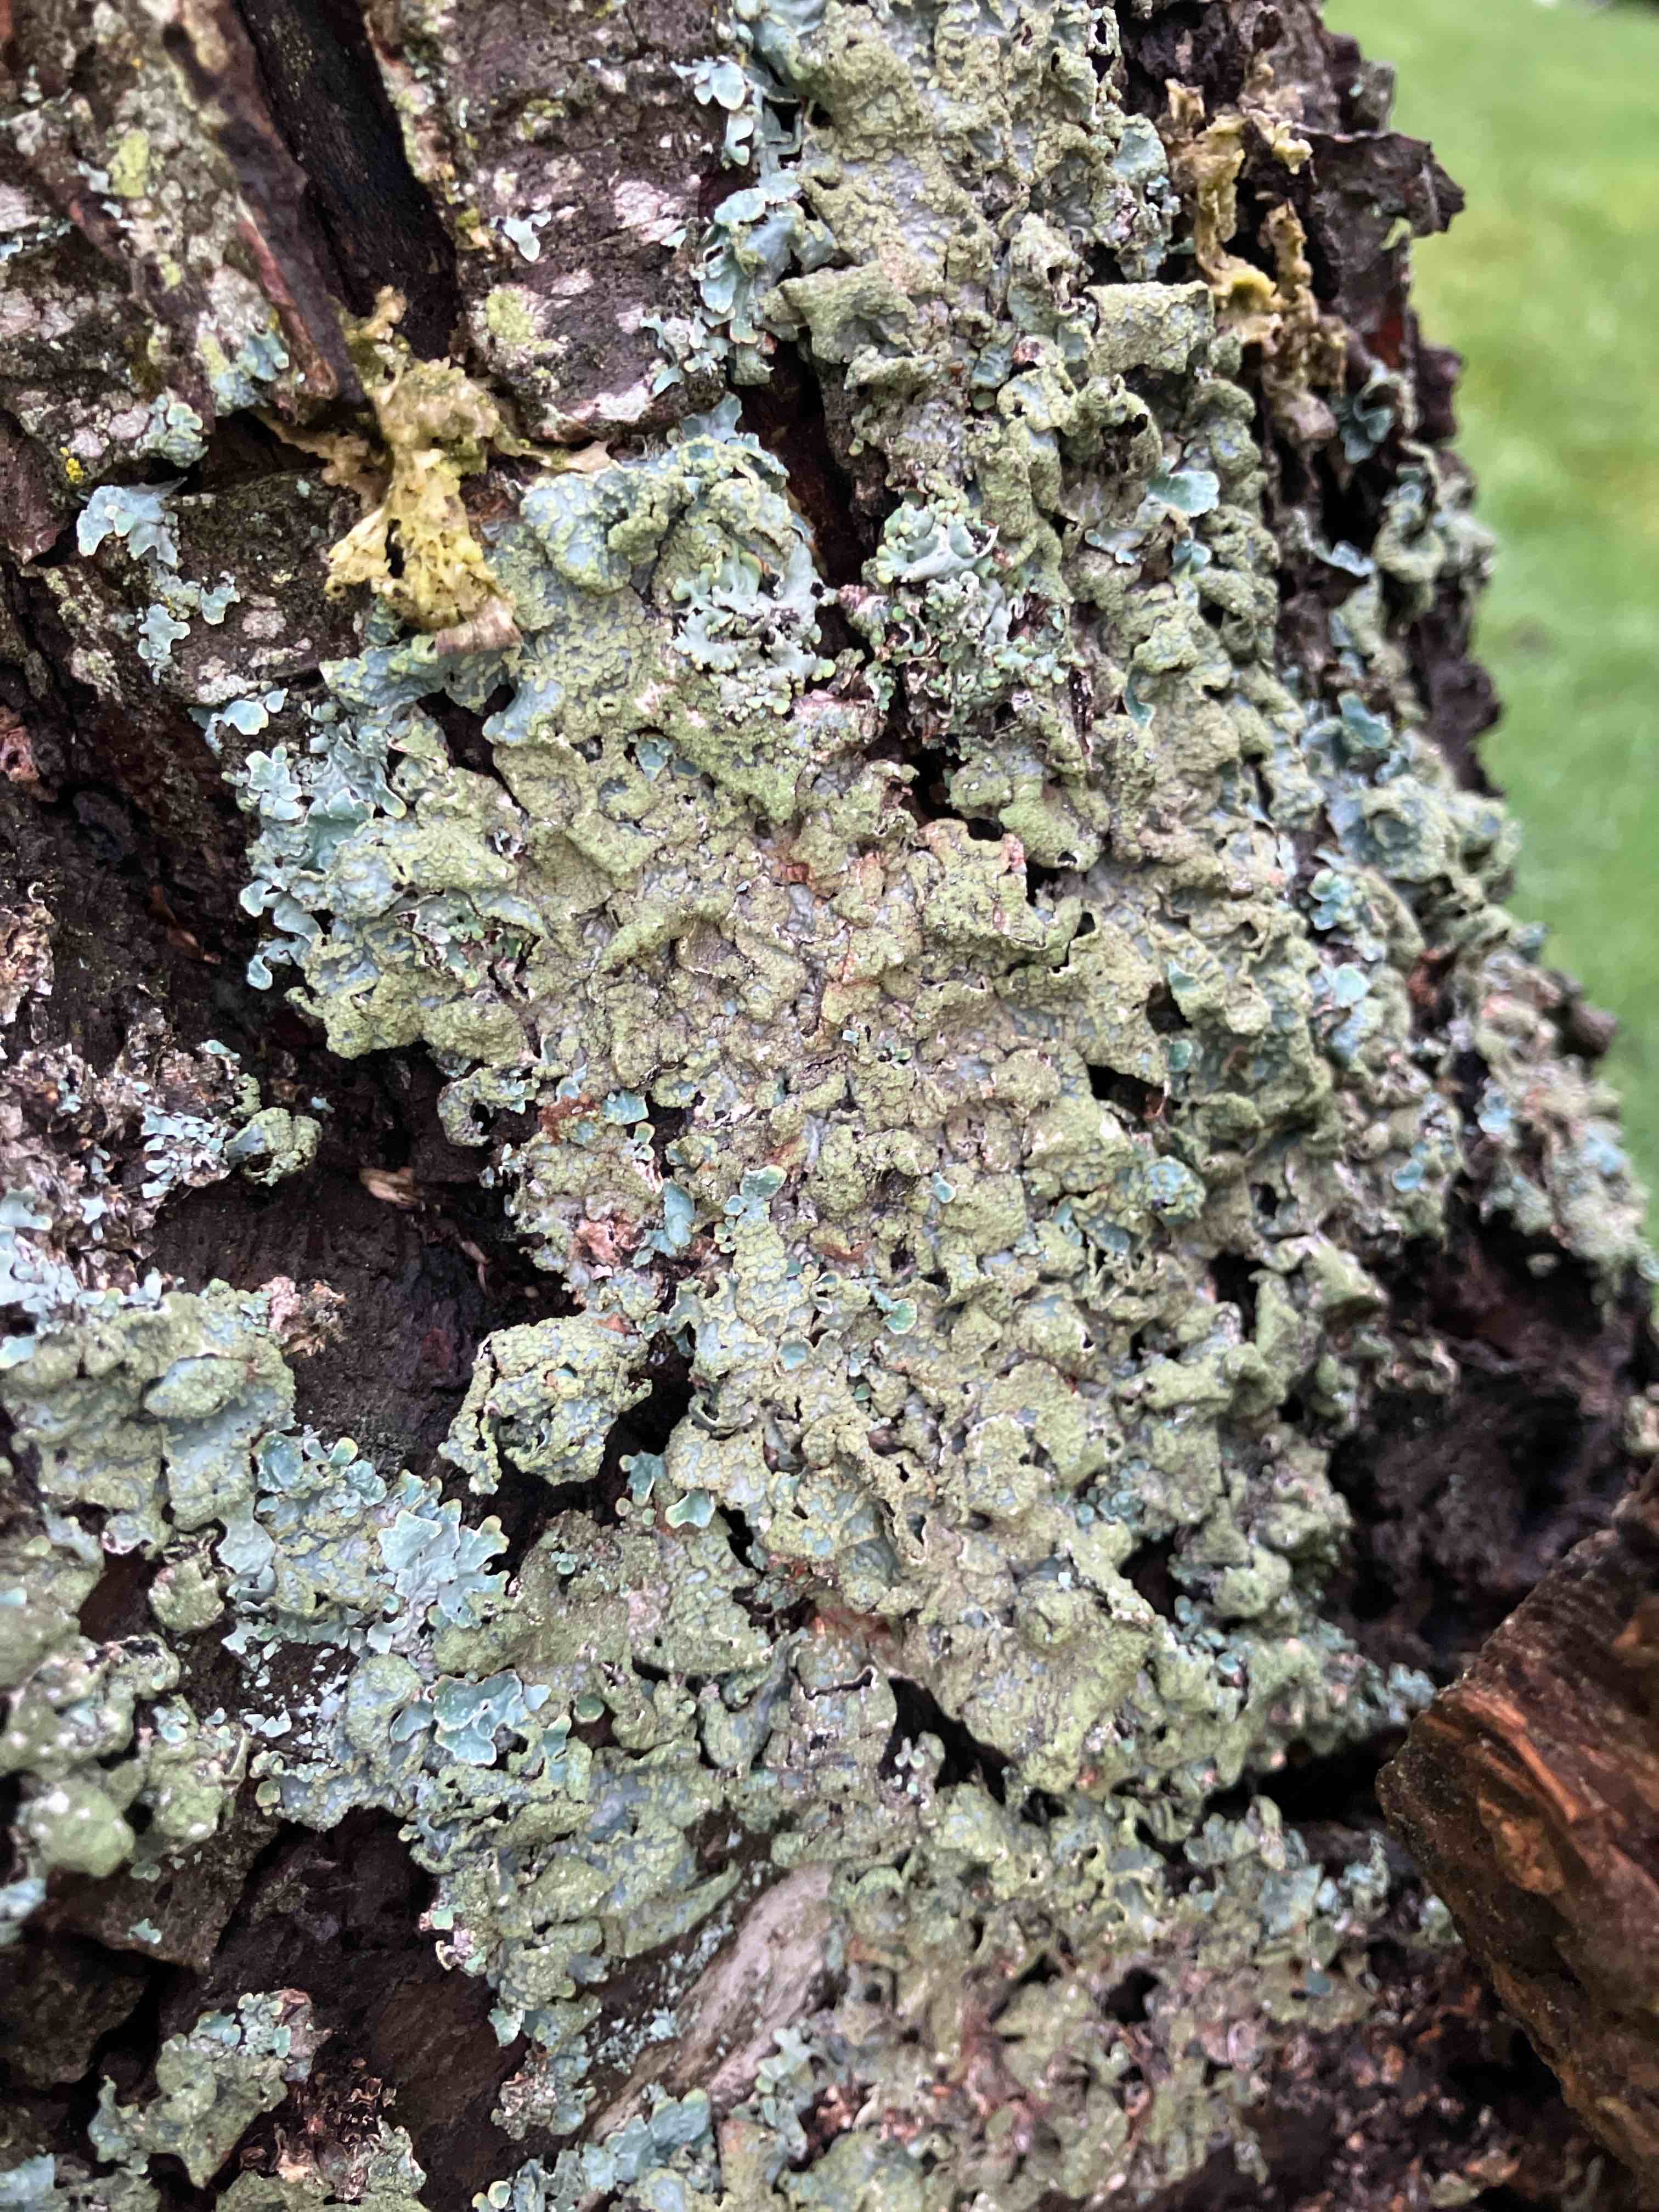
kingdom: Fungi
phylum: Ascomycota
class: Lecanoromycetes
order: Lecanorales
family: Parmeliaceae
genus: Parmelia
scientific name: Parmelia sulcata
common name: rynket skållav
